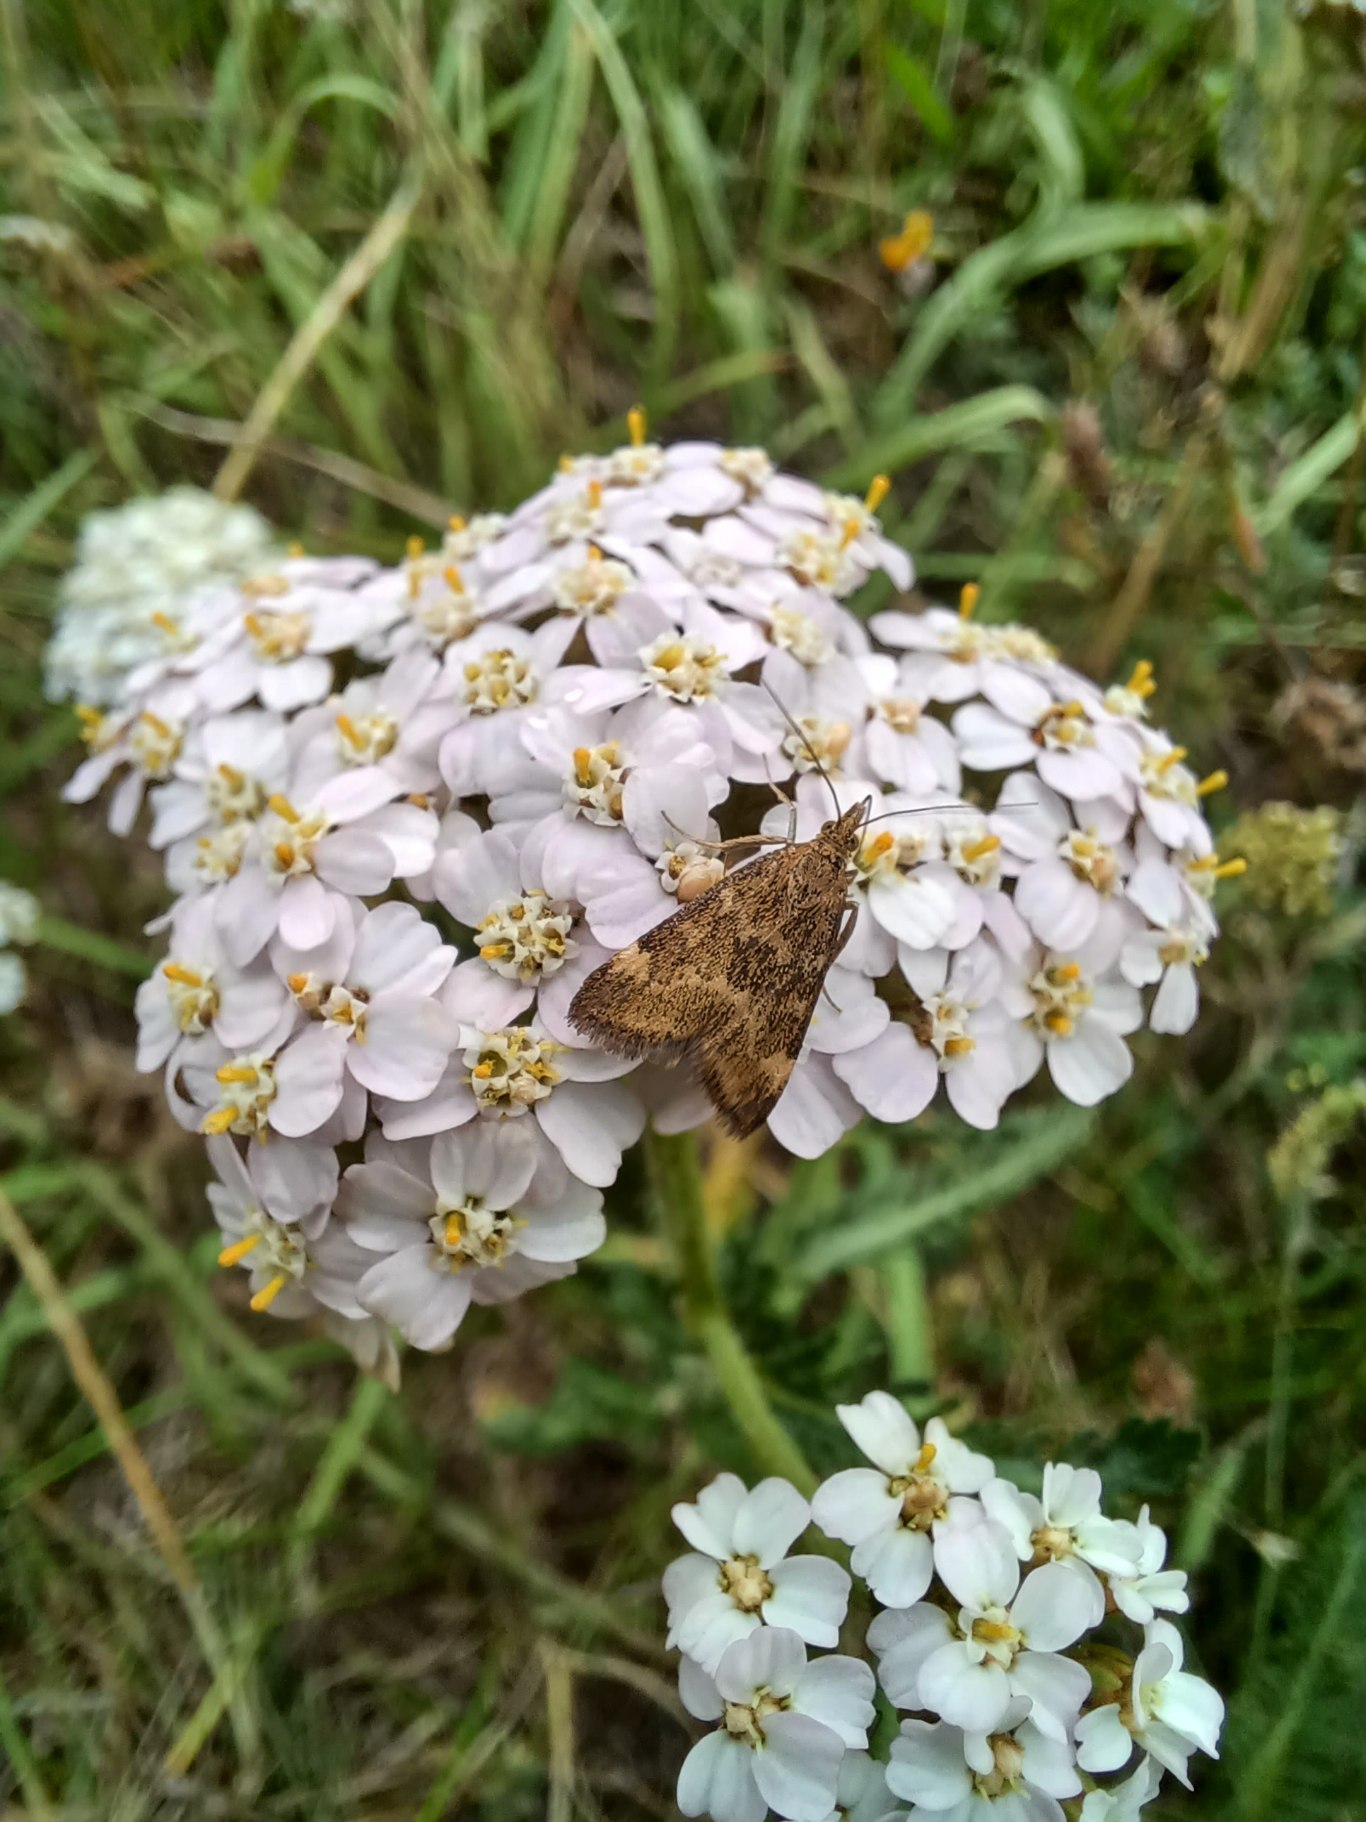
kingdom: Animalia
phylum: Arthropoda
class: Insecta
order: Lepidoptera
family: Crambidae
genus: Pyrausta
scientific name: Pyrausta despicata
